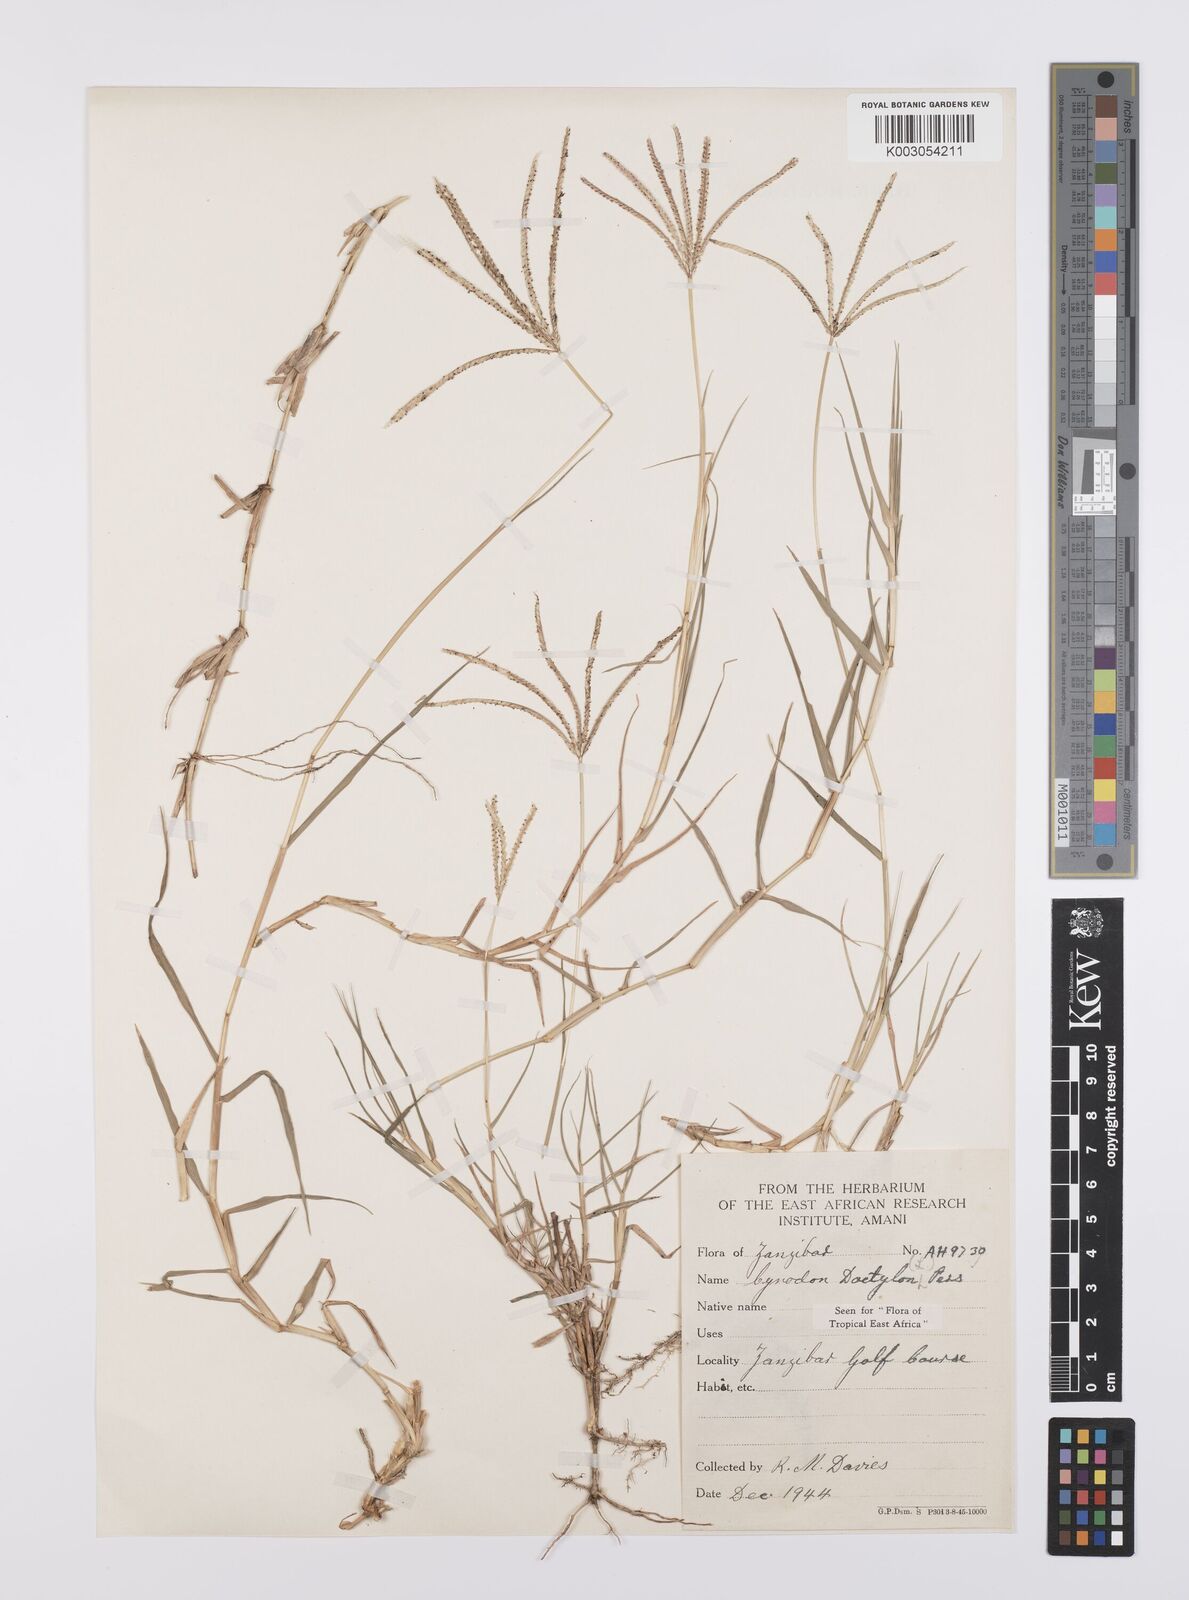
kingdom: Plantae
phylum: Tracheophyta
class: Liliopsida
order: Poales
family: Poaceae
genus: Cynodon
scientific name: Cynodon dactylon
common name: Bermuda grass
